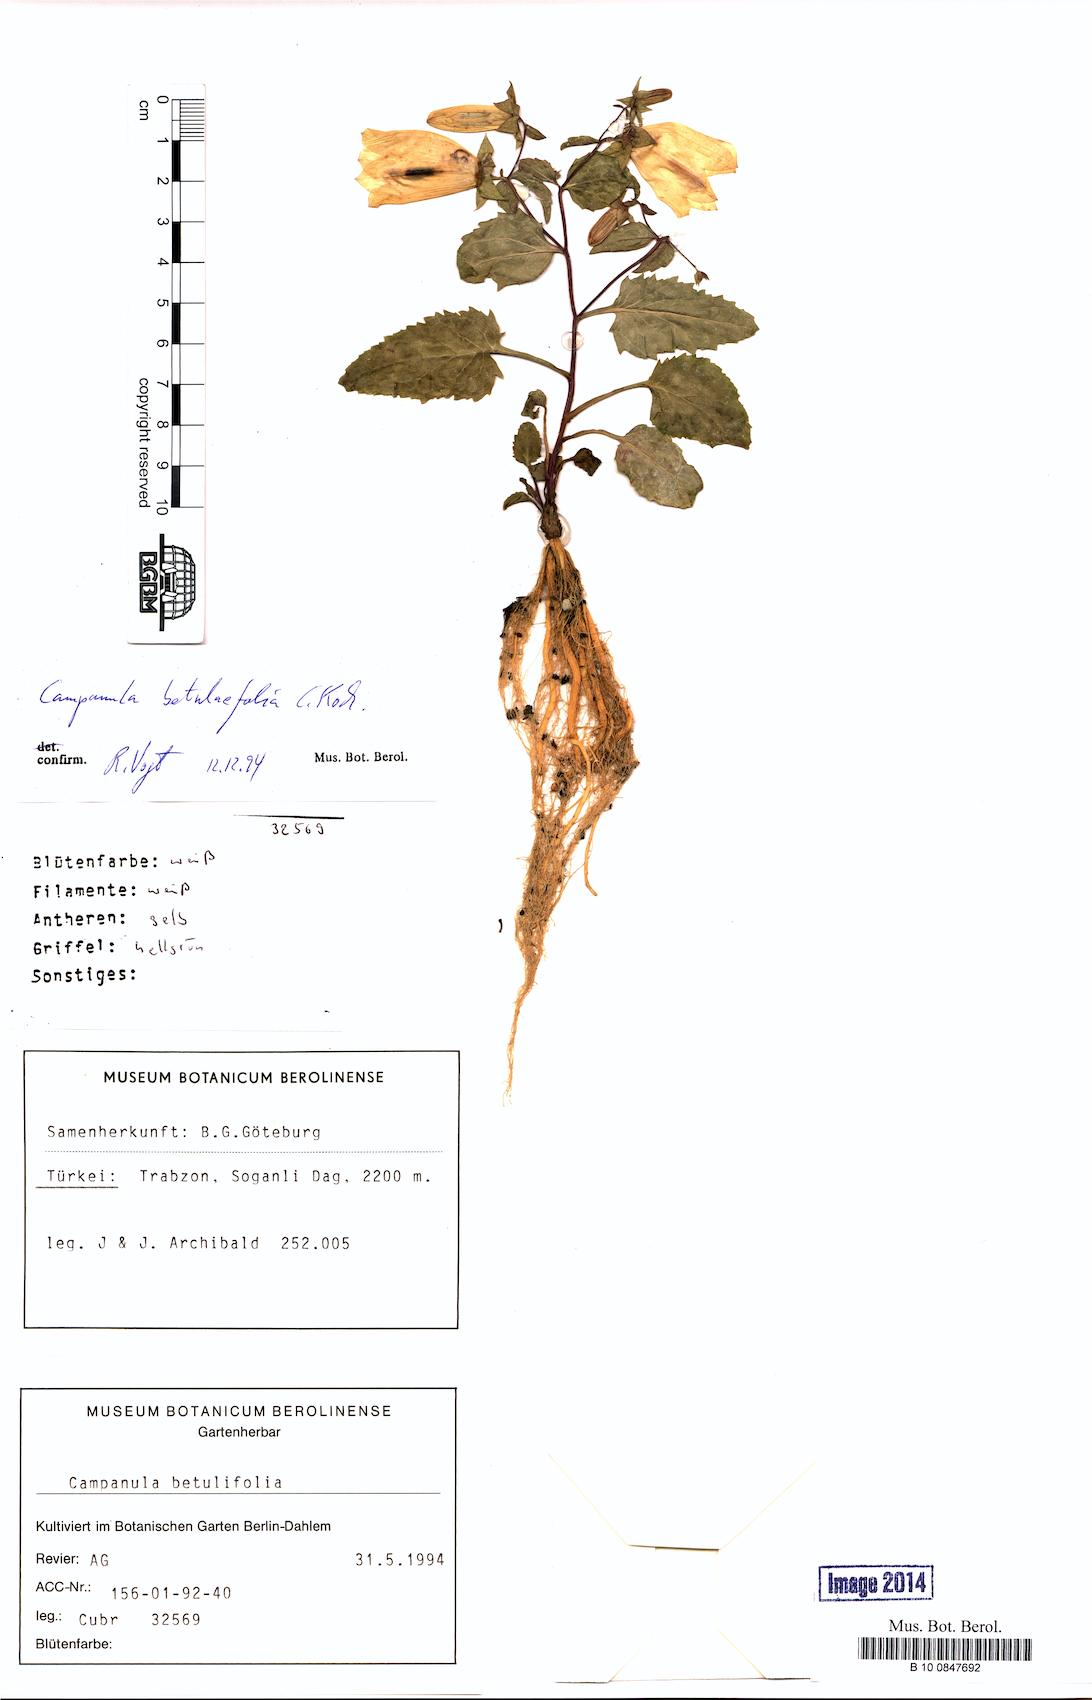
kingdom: Plantae
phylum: Tracheophyta
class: Magnoliopsida
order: Asterales
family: Campanulaceae
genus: Campanula
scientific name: Campanula betulifolia
